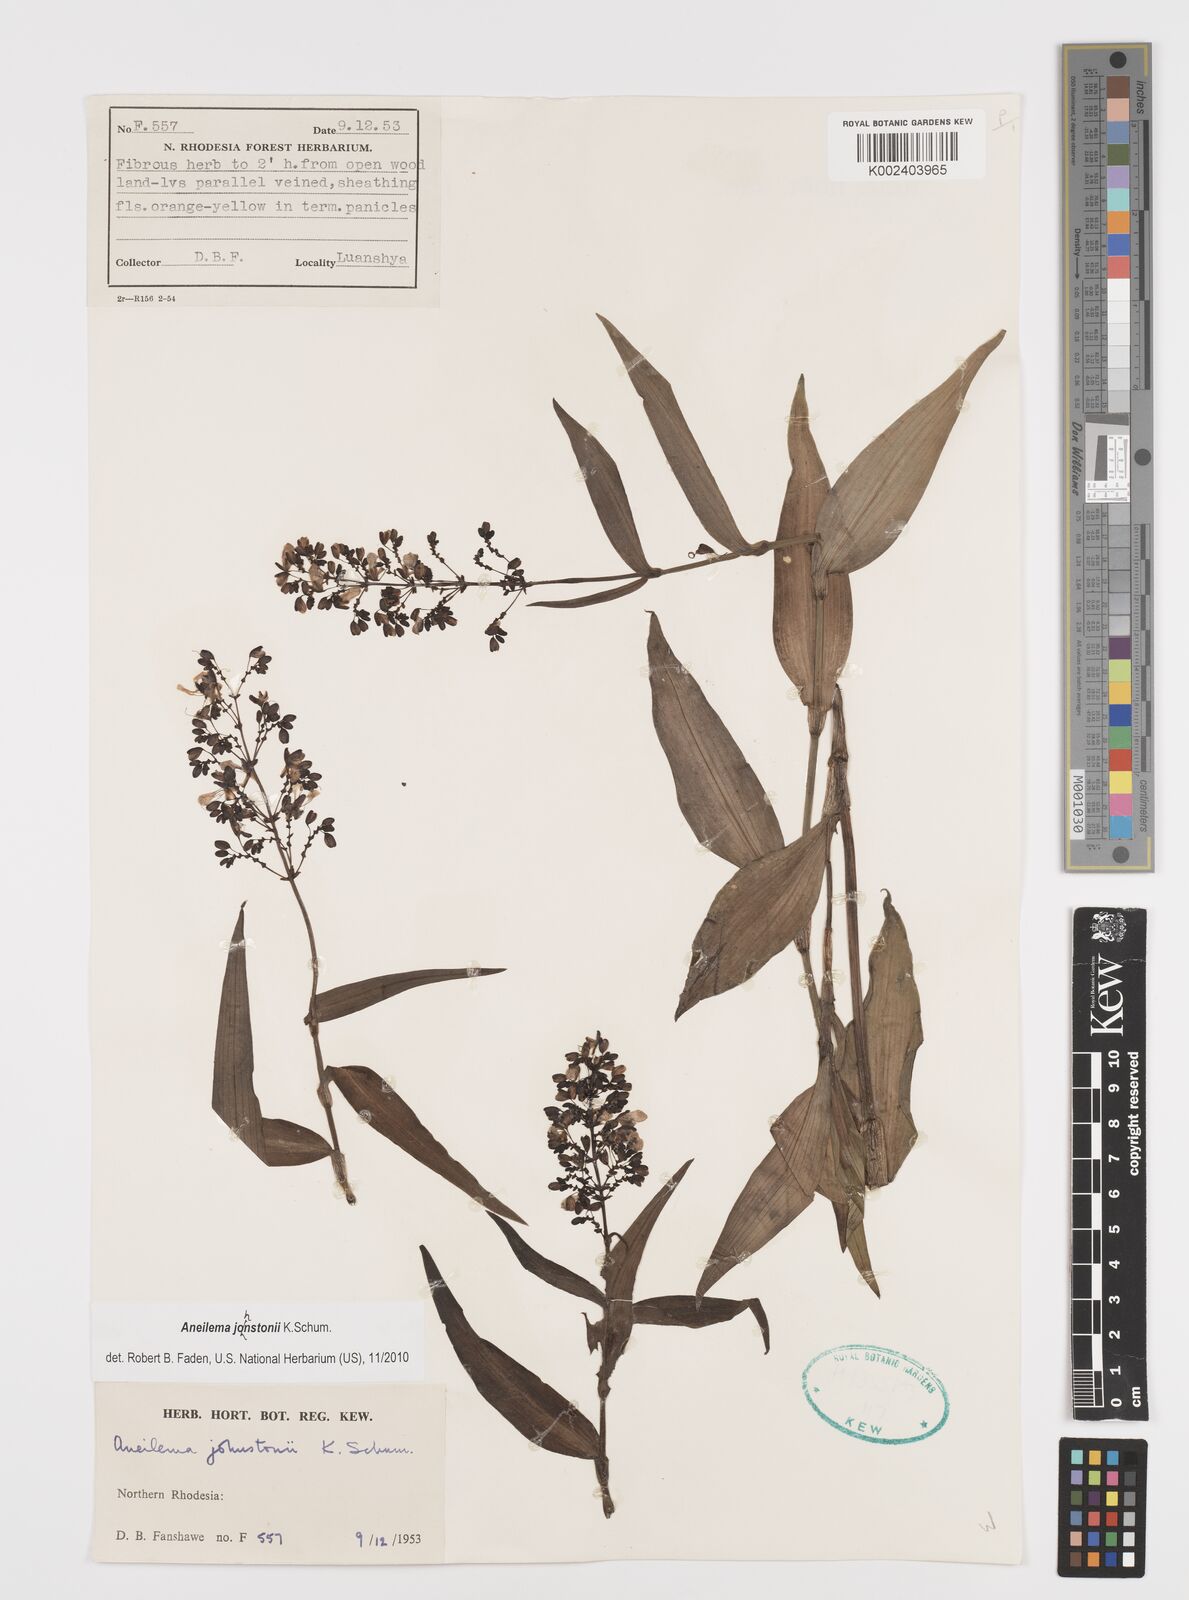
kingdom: Plantae
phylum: Tracheophyta
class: Liliopsida
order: Commelinales
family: Commelinaceae
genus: Aneilema
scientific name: Aneilema johnstonii
